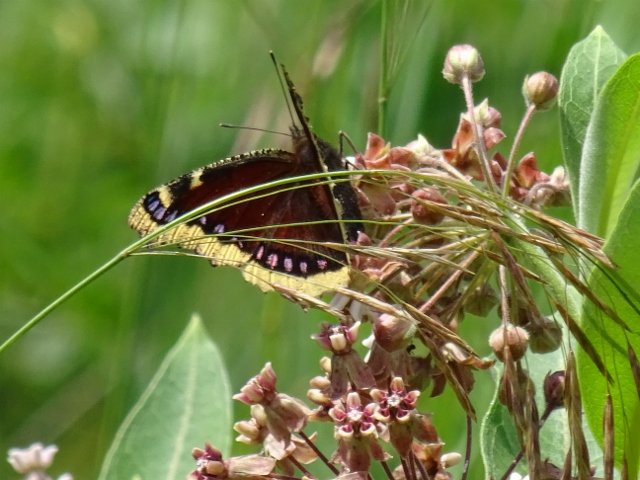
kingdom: Animalia
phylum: Arthropoda
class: Insecta
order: Lepidoptera
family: Nymphalidae
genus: Nymphalis
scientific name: Nymphalis antiopa
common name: Mourning Cloak
